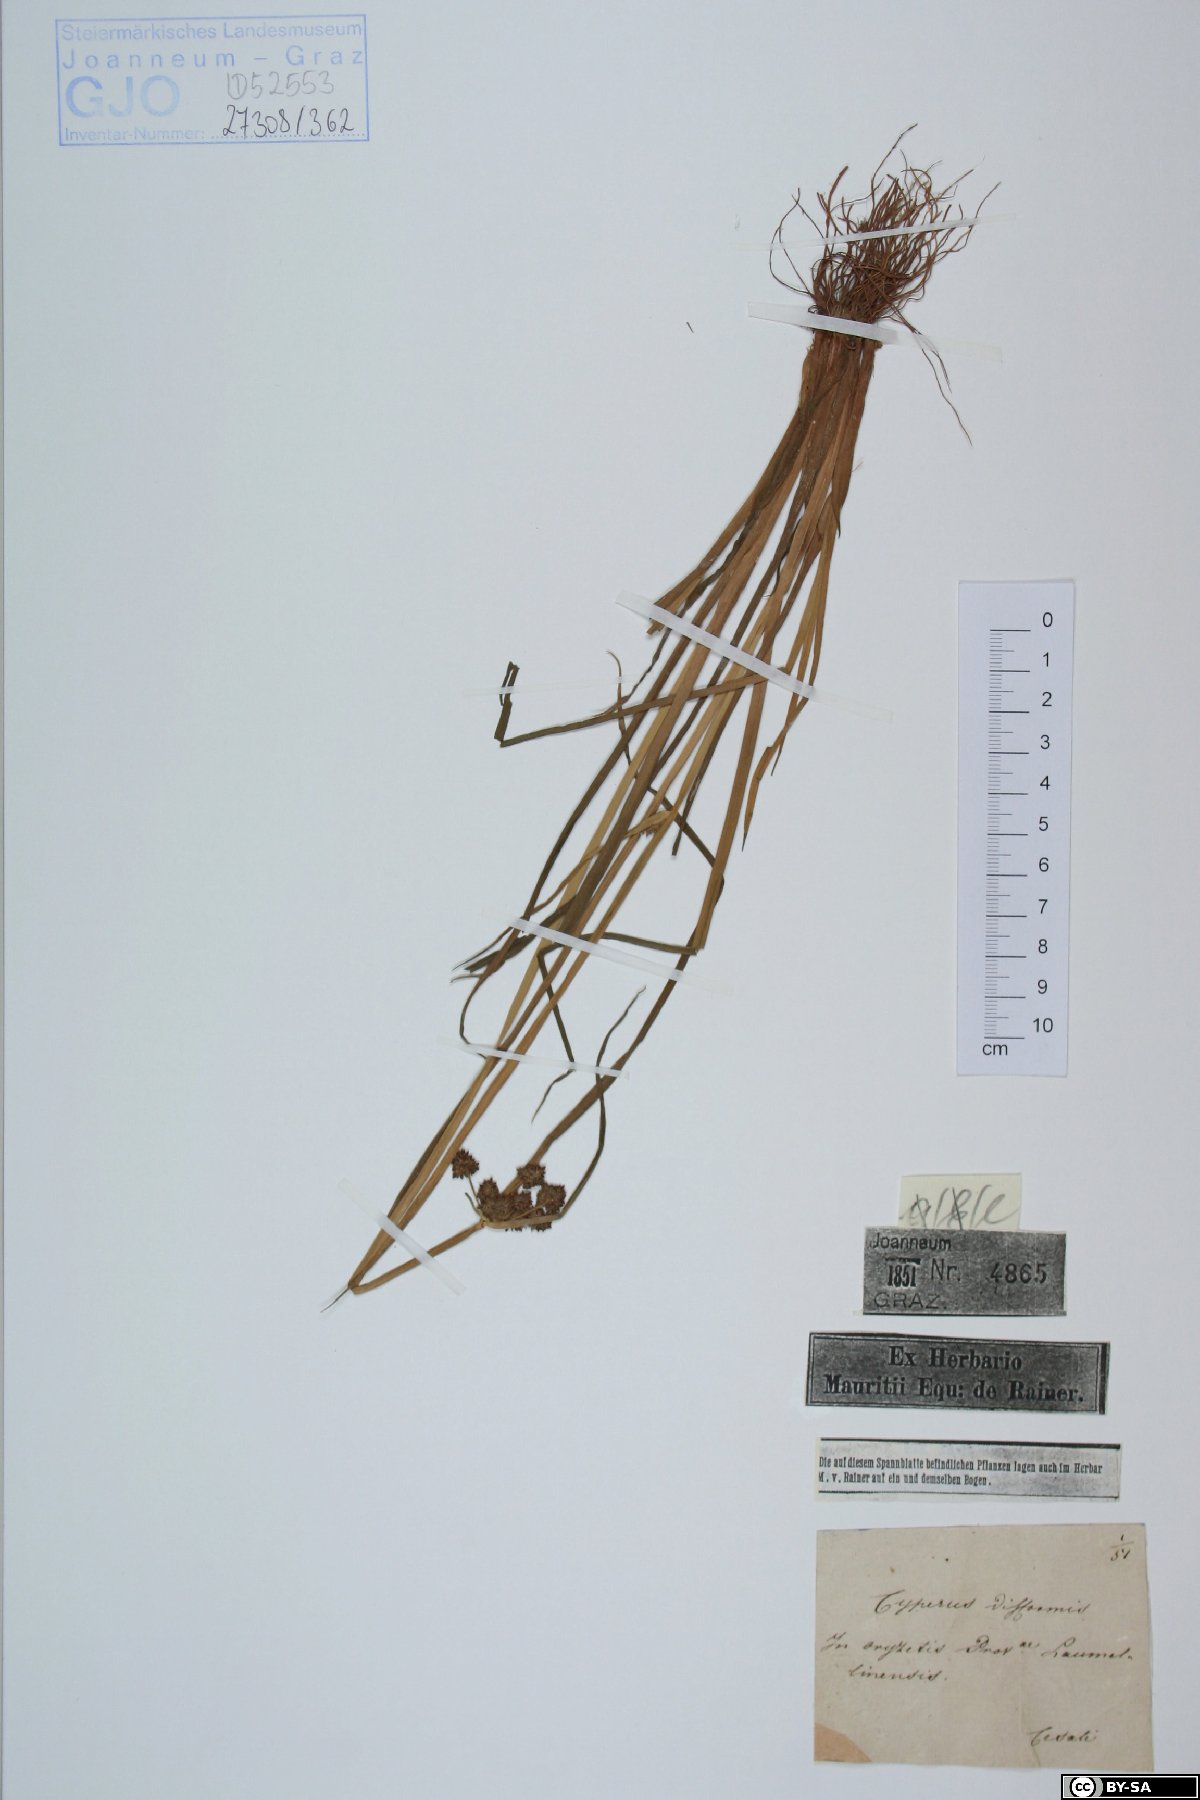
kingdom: Plantae
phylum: Tracheophyta
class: Liliopsida
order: Poales
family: Cyperaceae
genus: Cyperus
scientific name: Cyperus difformis
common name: Variable flatsedge
